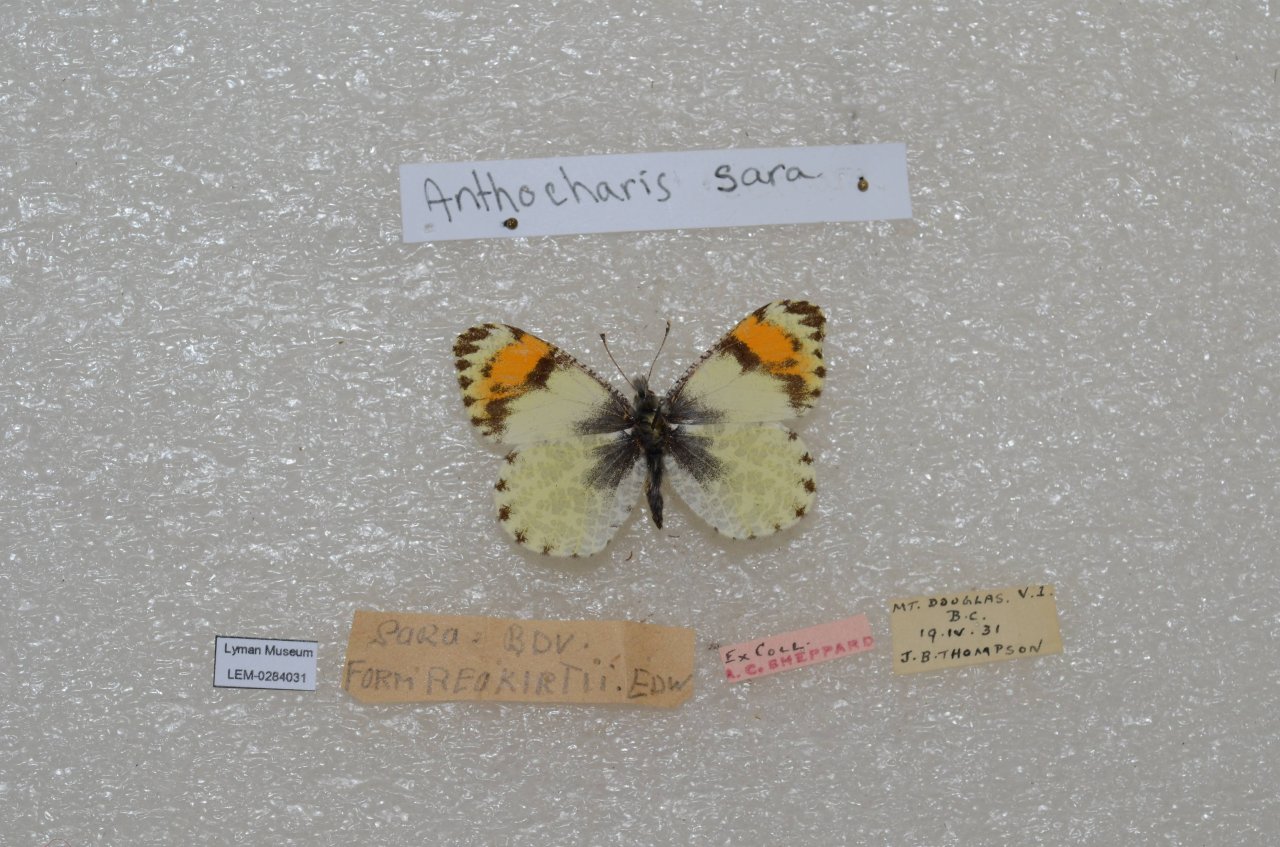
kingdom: Animalia
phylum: Arthropoda
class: Insecta
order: Lepidoptera
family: Pieridae
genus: Anthocharis
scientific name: Anthocharis sara
